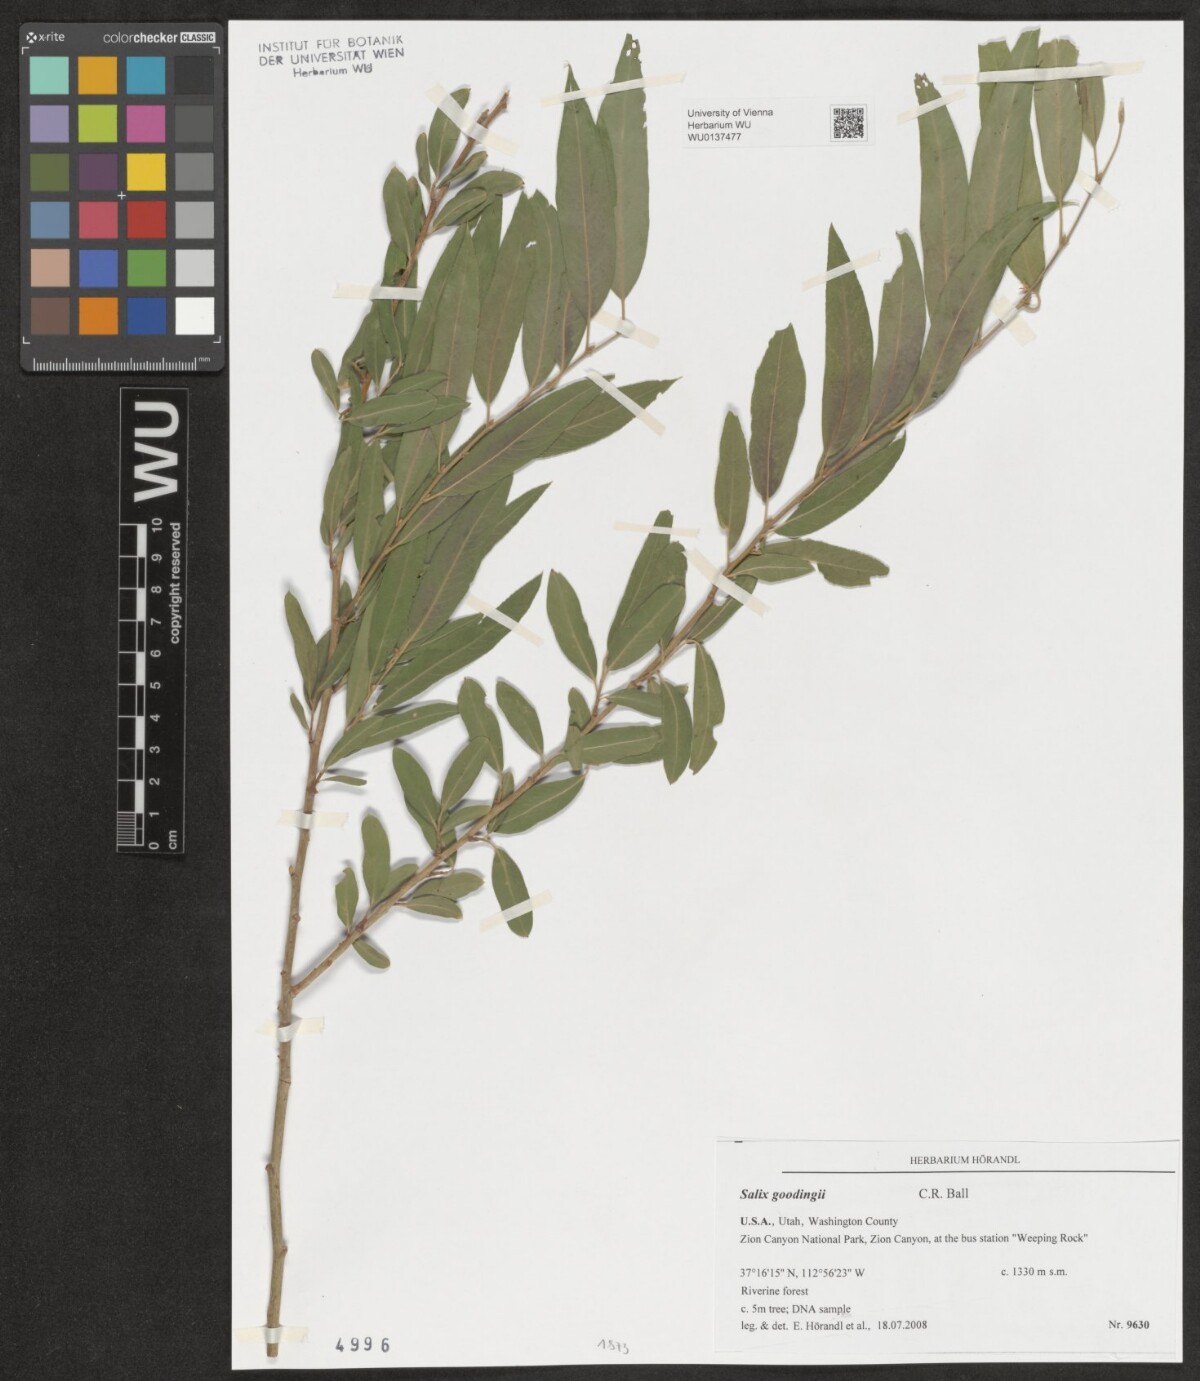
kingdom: Plantae
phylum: Tracheophyta
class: Magnoliopsida
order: Malpighiales
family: Salicaceae
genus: Salix
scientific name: Salix gooddingii
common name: Goodding's willow
